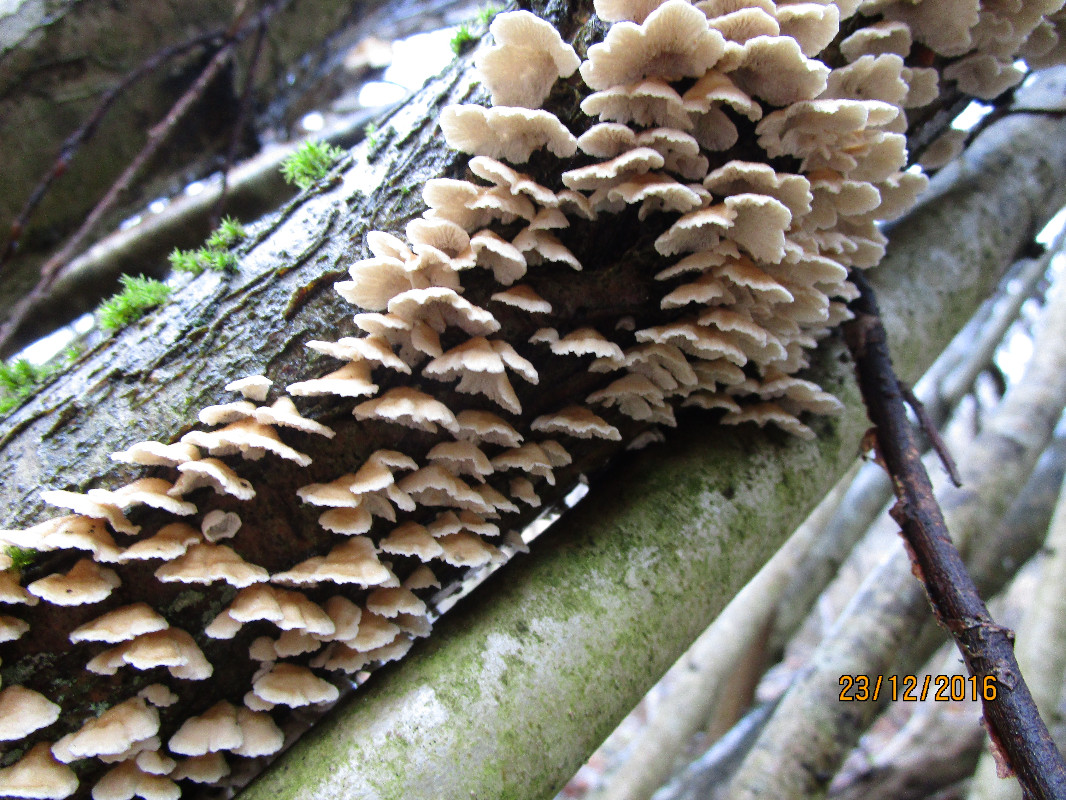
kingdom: Fungi
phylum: Basidiomycota
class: Agaricomycetes
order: Amylocorticiales
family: Amylocorticiaceae
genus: Plicaturopsis
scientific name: Plicaturopsis crispa
